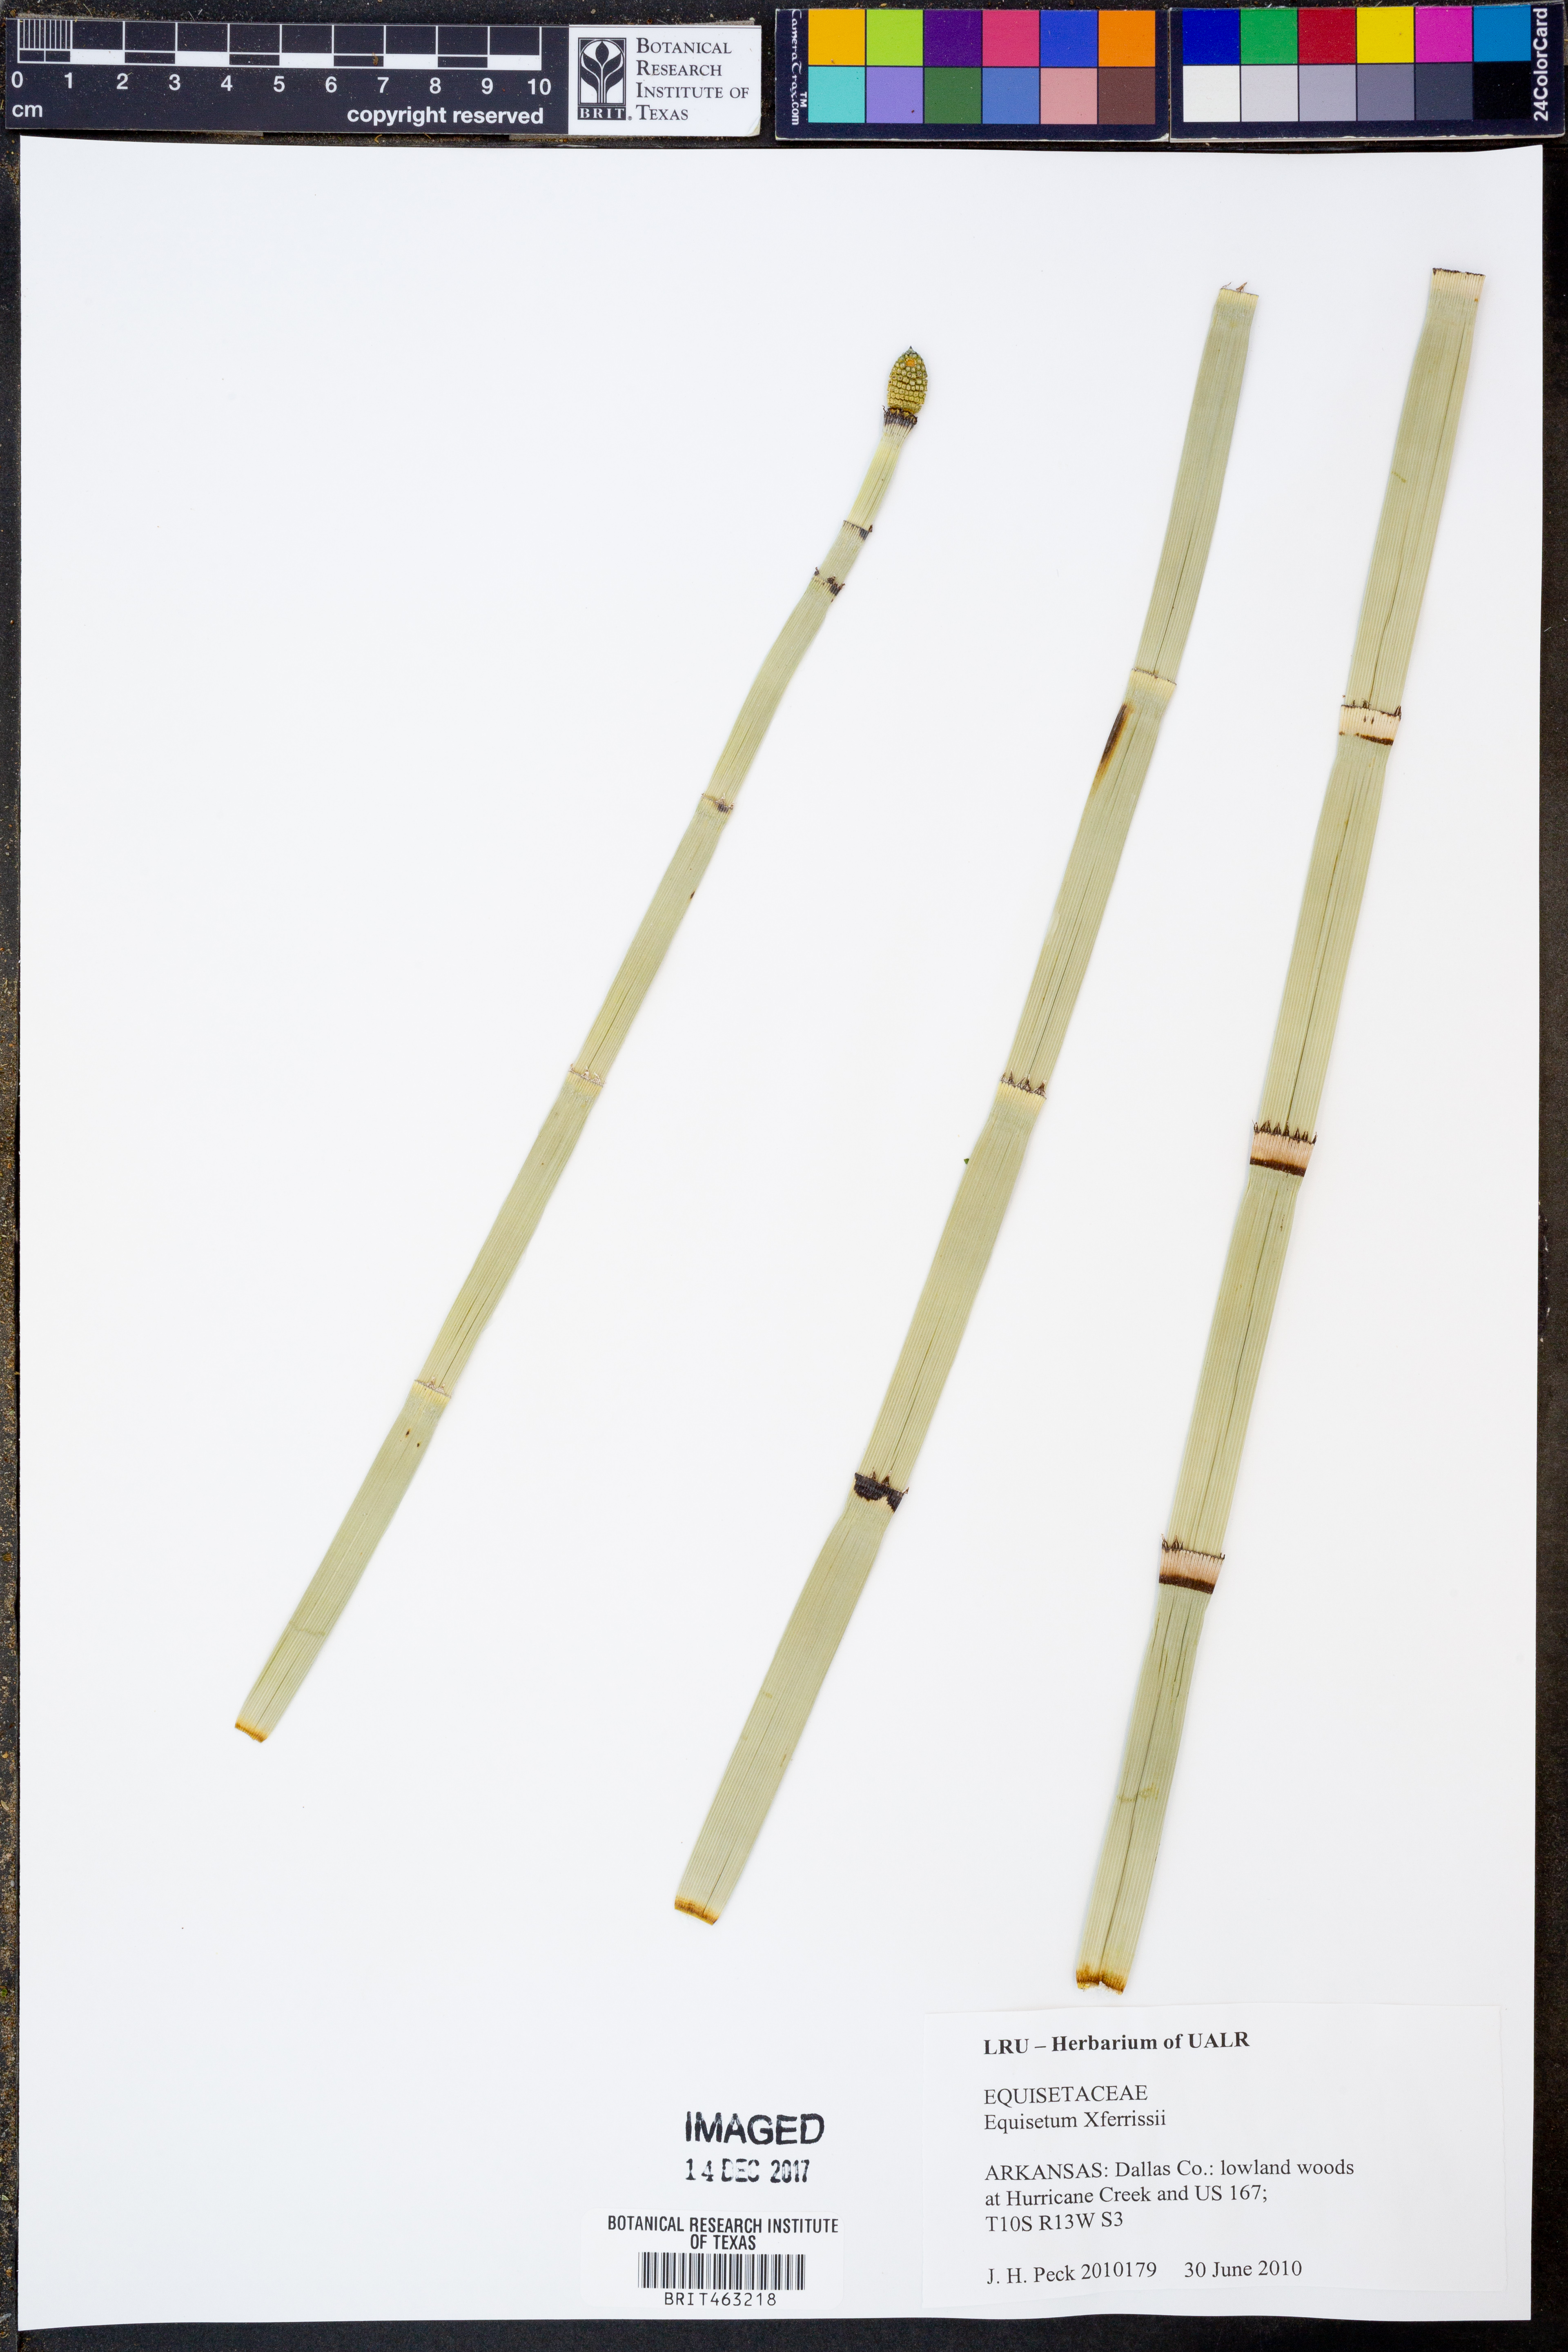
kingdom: Plantae
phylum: Tracheophyta
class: Polypodiopsida
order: Equisetales
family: Equisetaceae
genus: Equisetum
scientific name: Equisetum ferrissii
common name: Ferriss' horsetail
